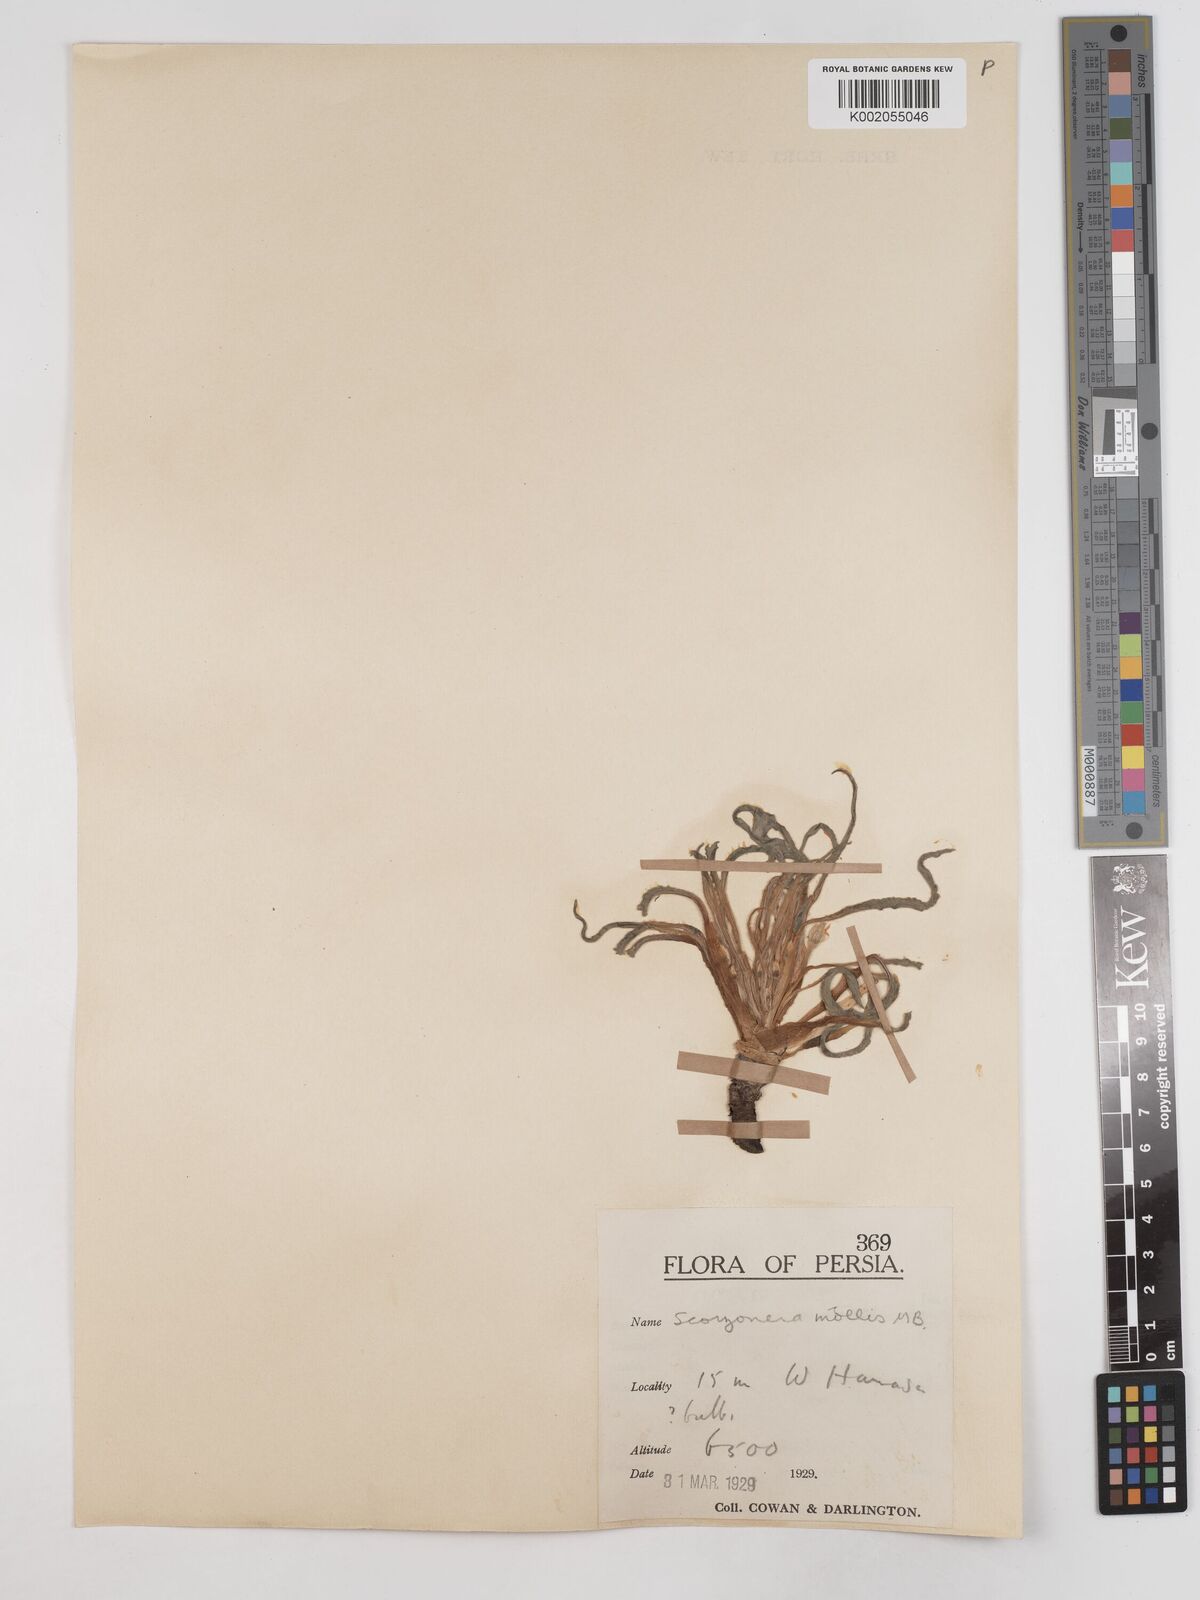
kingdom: Plantae
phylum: Tracheophyta
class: Magnoliopsida
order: Asterales
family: Asteraceae
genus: Candollea
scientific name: Candollea mollis
